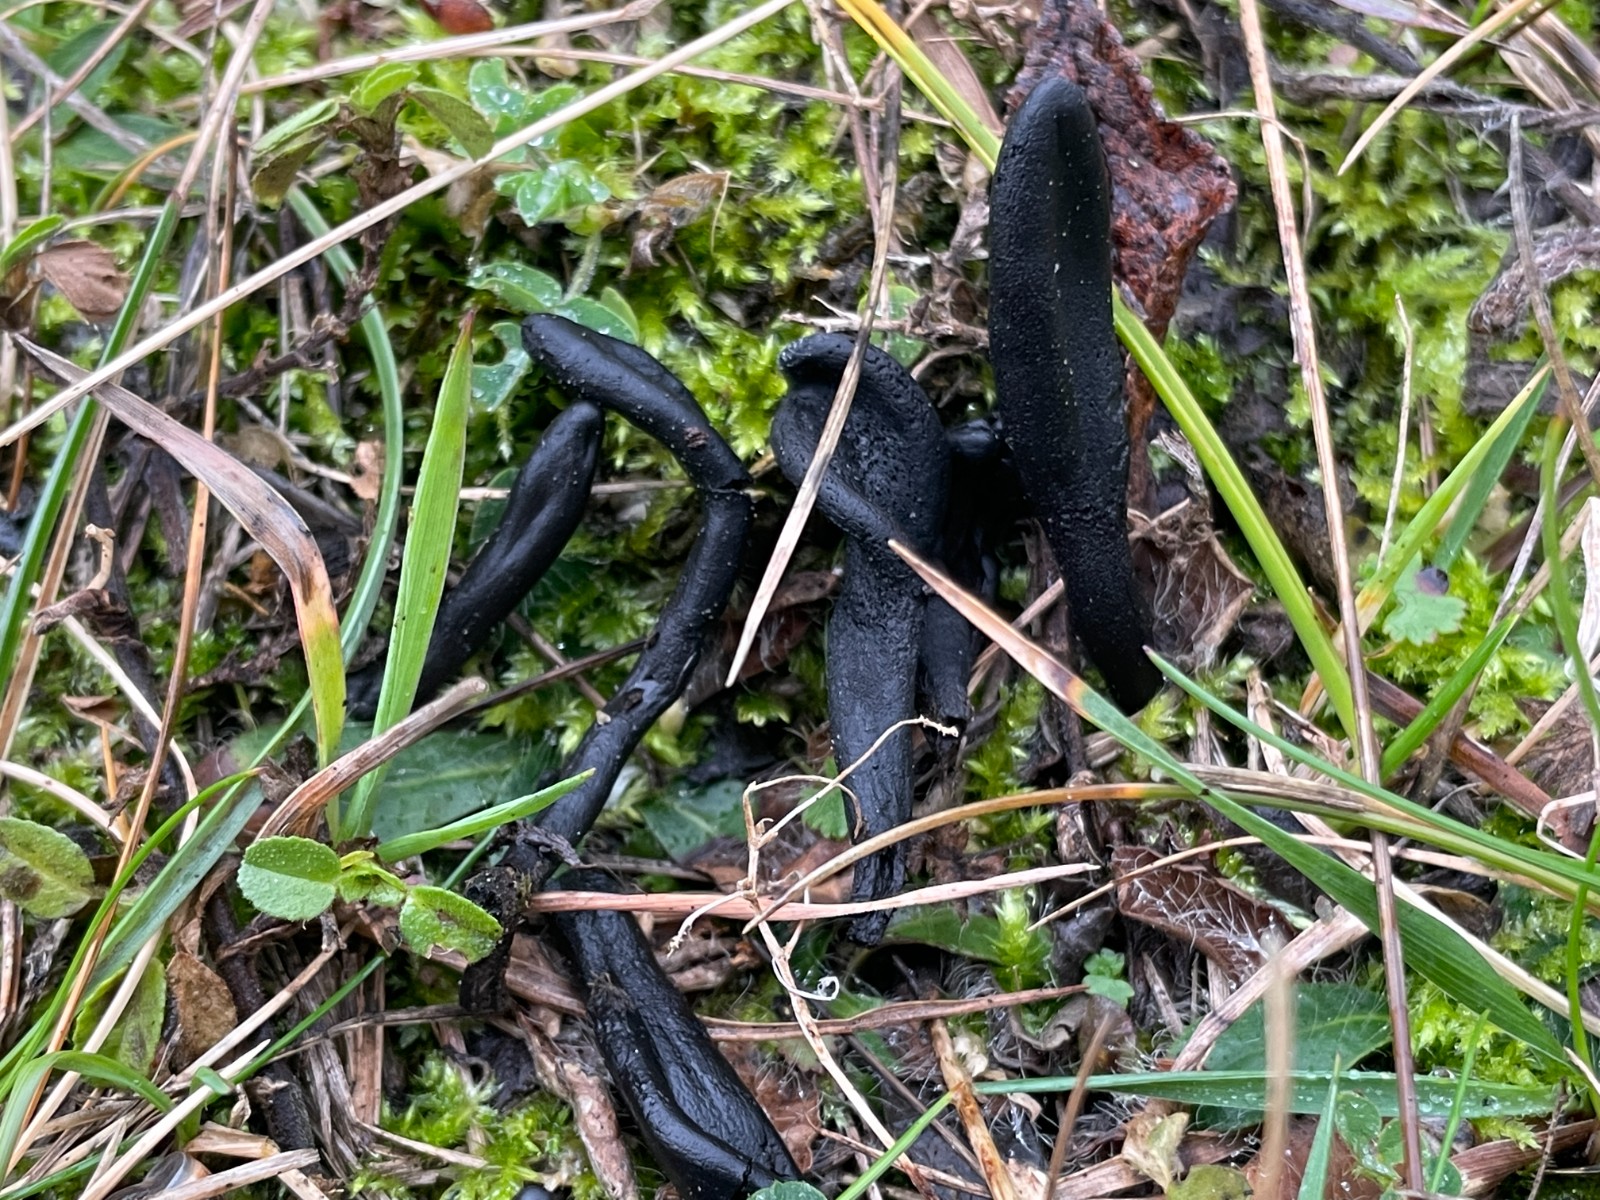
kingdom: Fungi
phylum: Ascomycota
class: Geoglossomycetes
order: Geoglossales
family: Geoglossaceae
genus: Geoglossum
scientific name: Geoglossum
